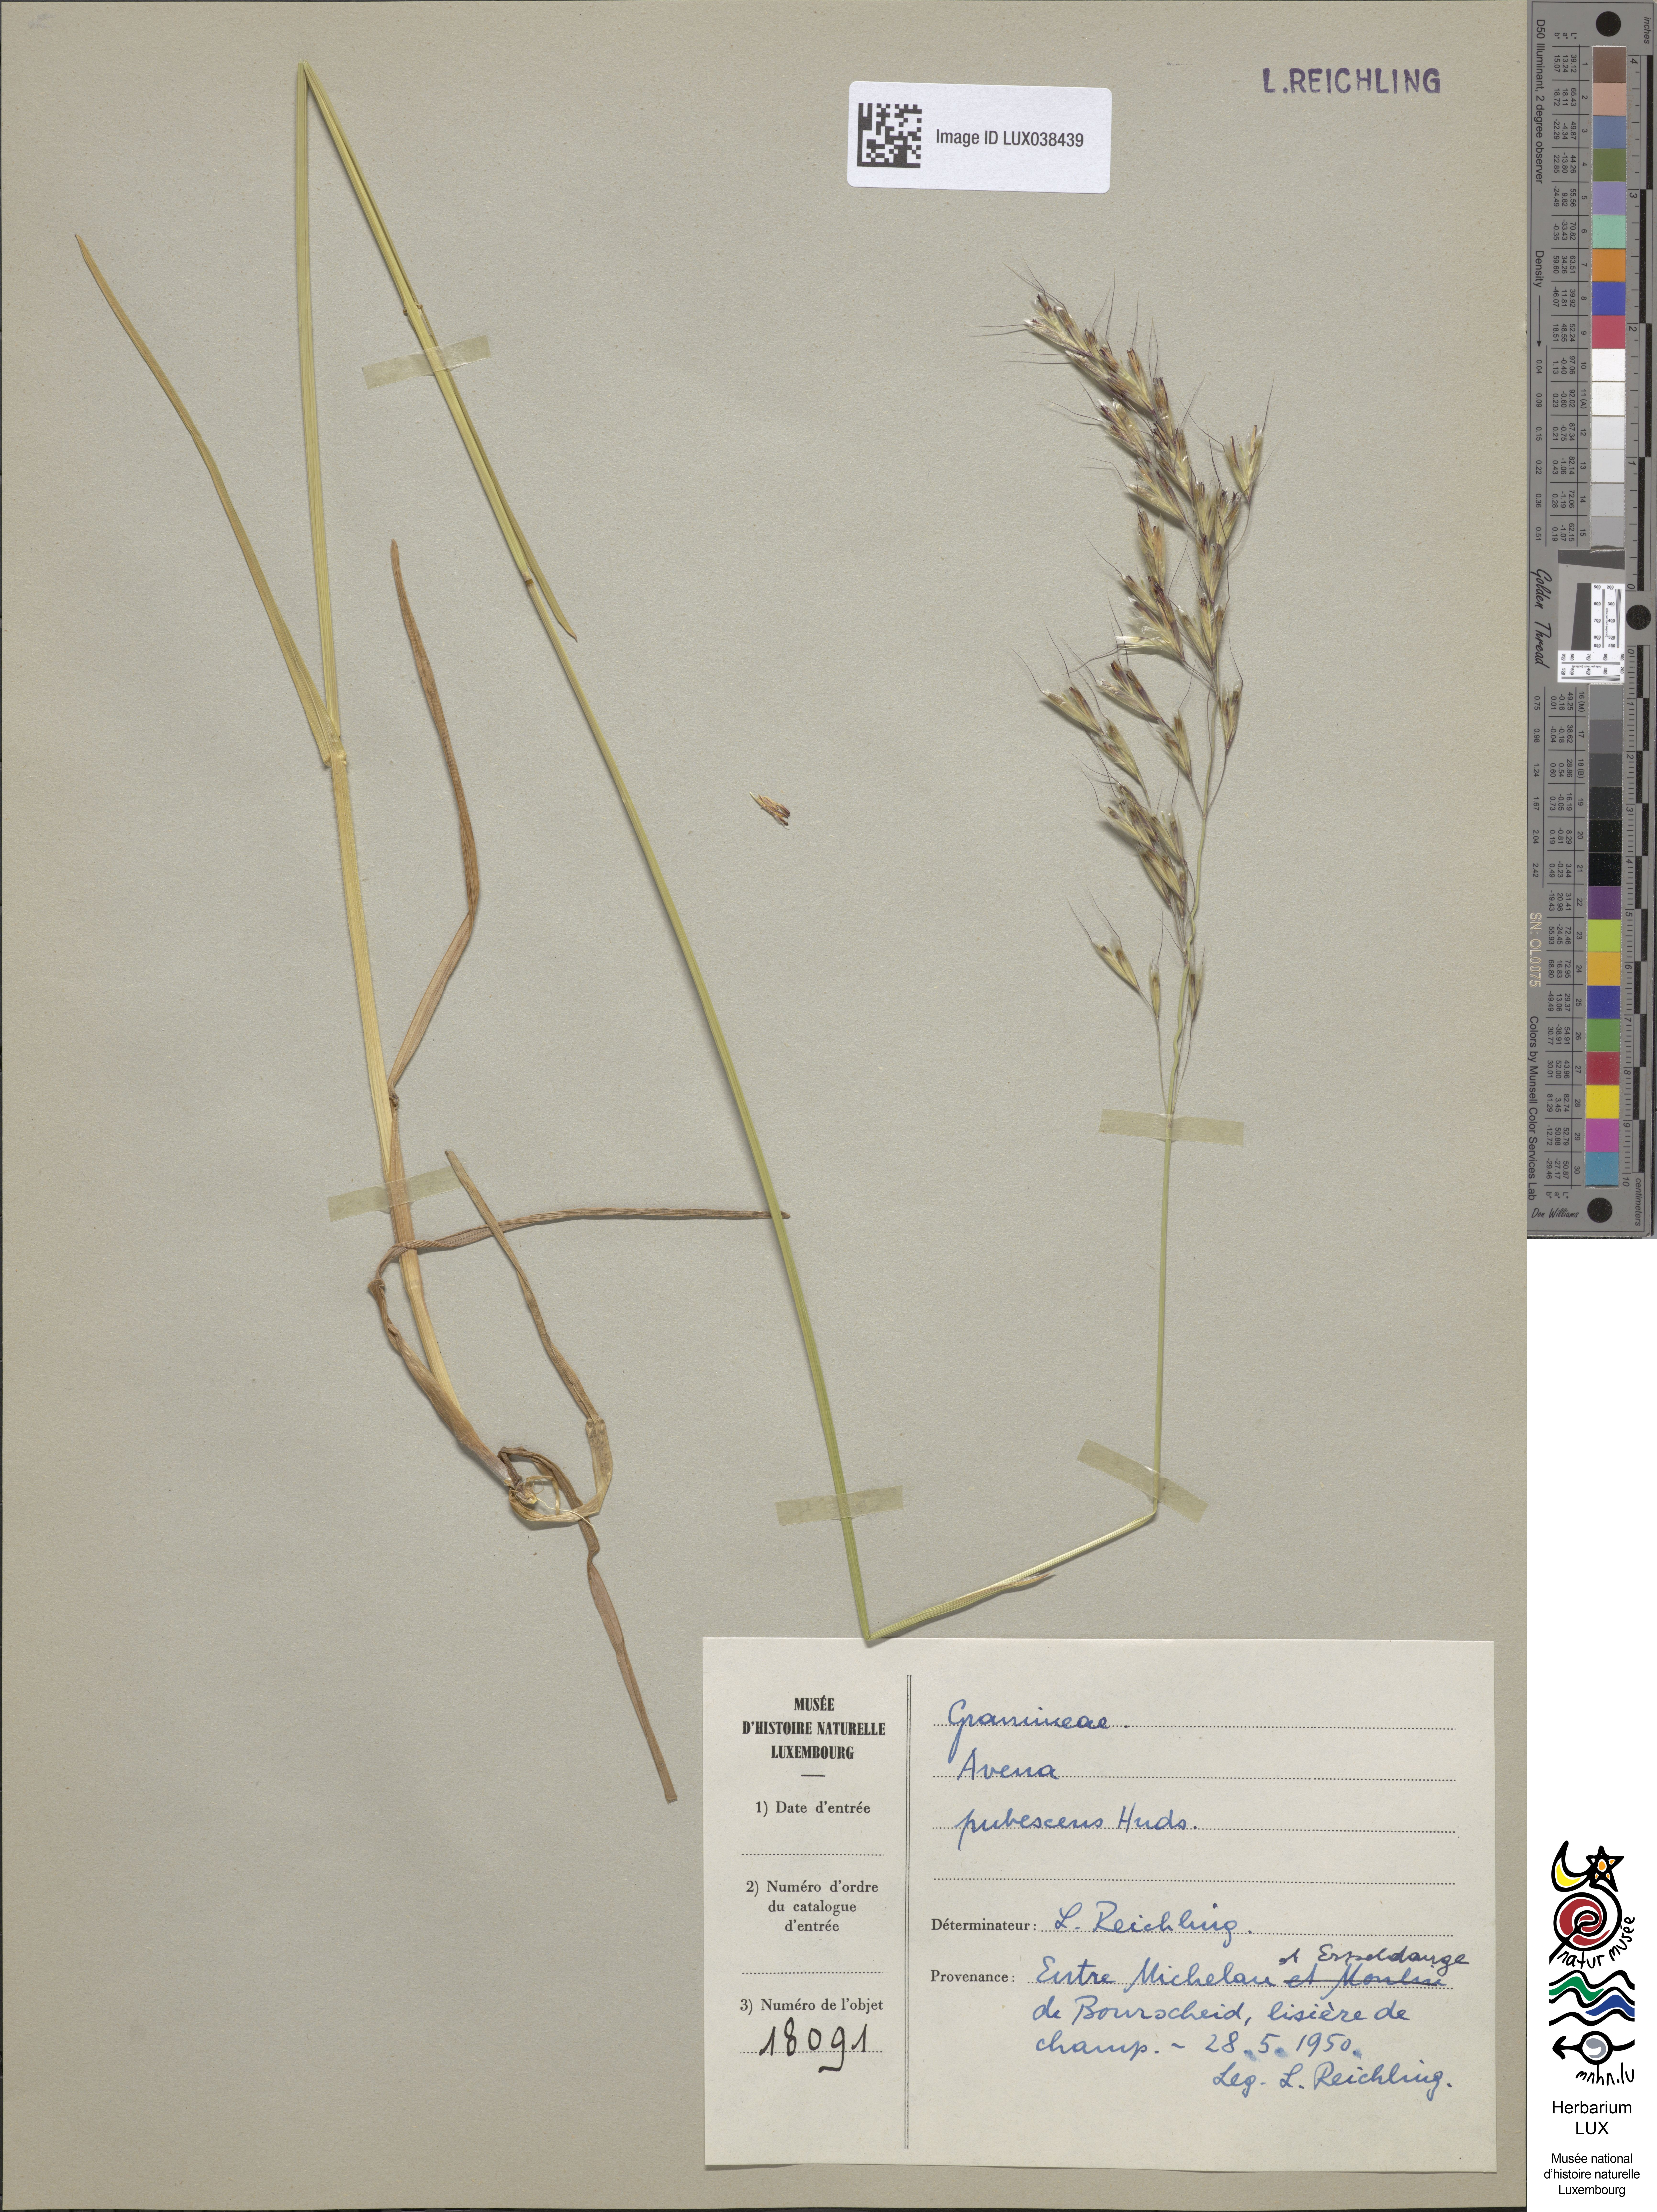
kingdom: Plantae
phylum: Tracheophyta
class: Liliopsida
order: Poales
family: Poaceae
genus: Avenula
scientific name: Avenula pubescens
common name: Downy alpine oatgrass
